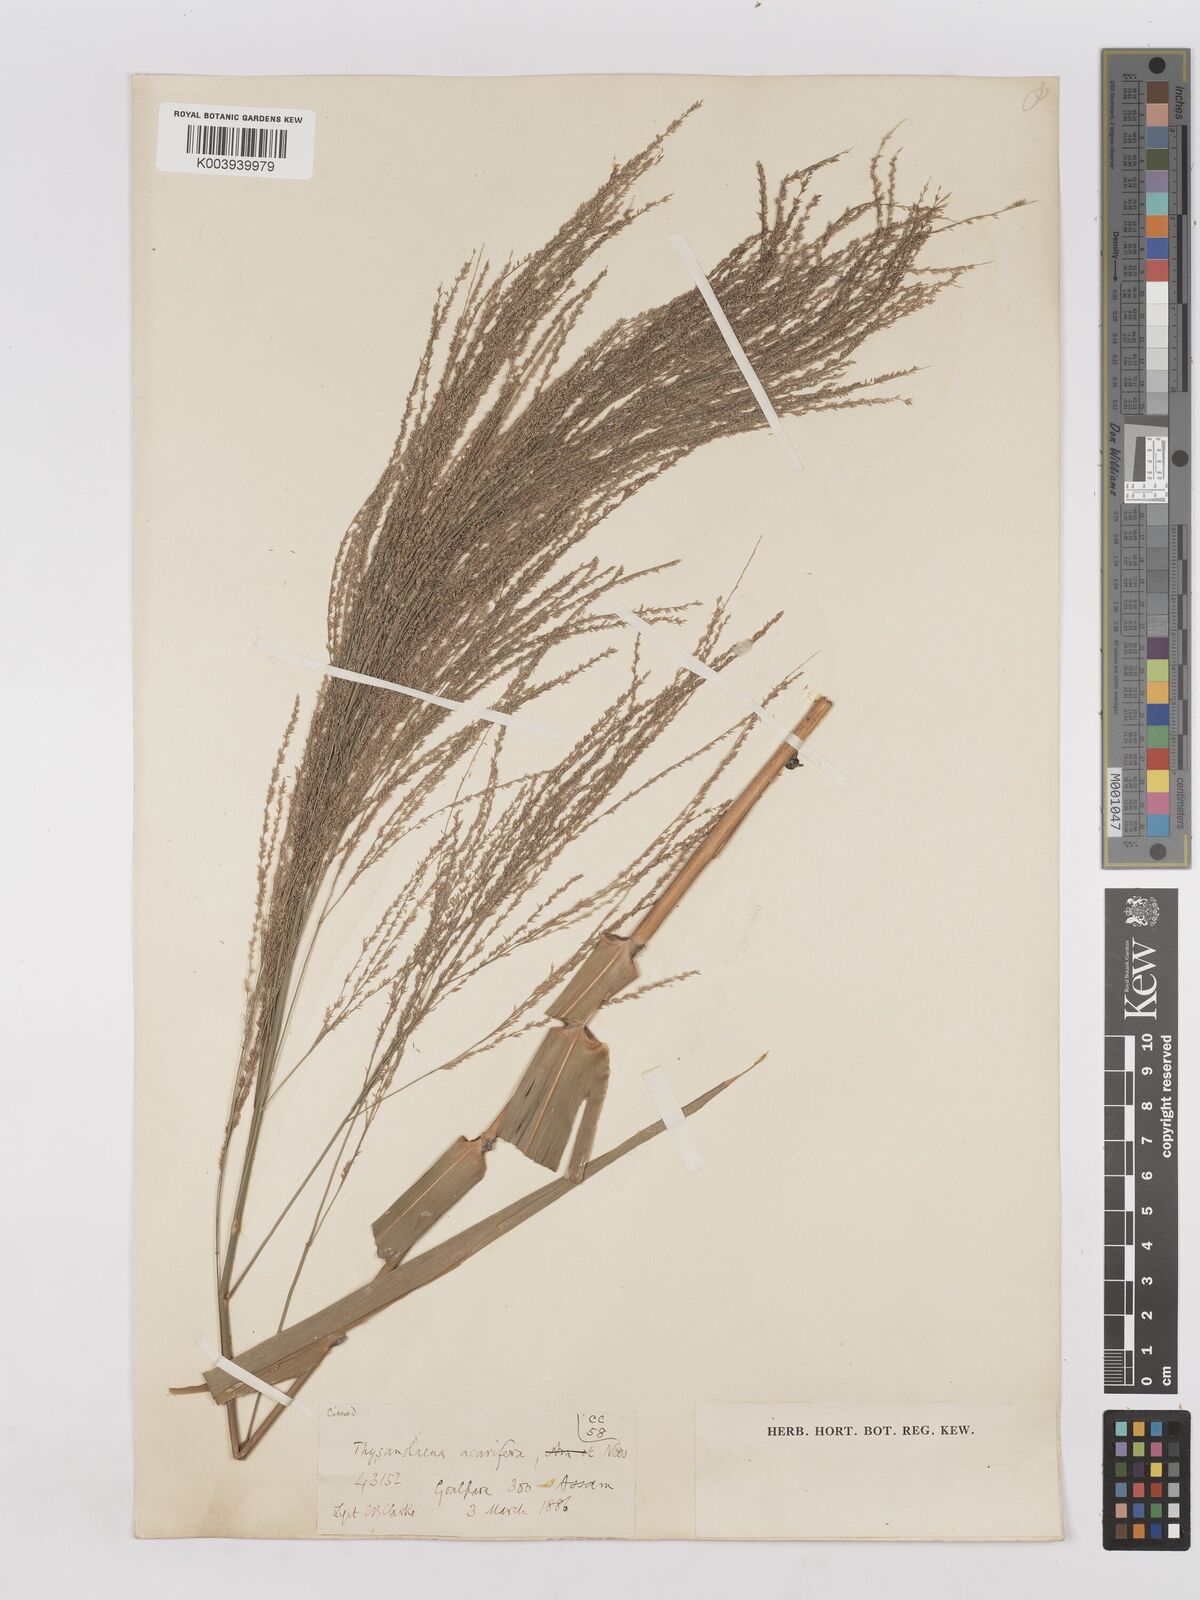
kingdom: Plantae
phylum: Tracheophyta
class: Liliopsida
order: Poales
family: Poaceae
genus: Thysanolaena
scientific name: Thysanolaena latifolia
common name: Tiger grass
